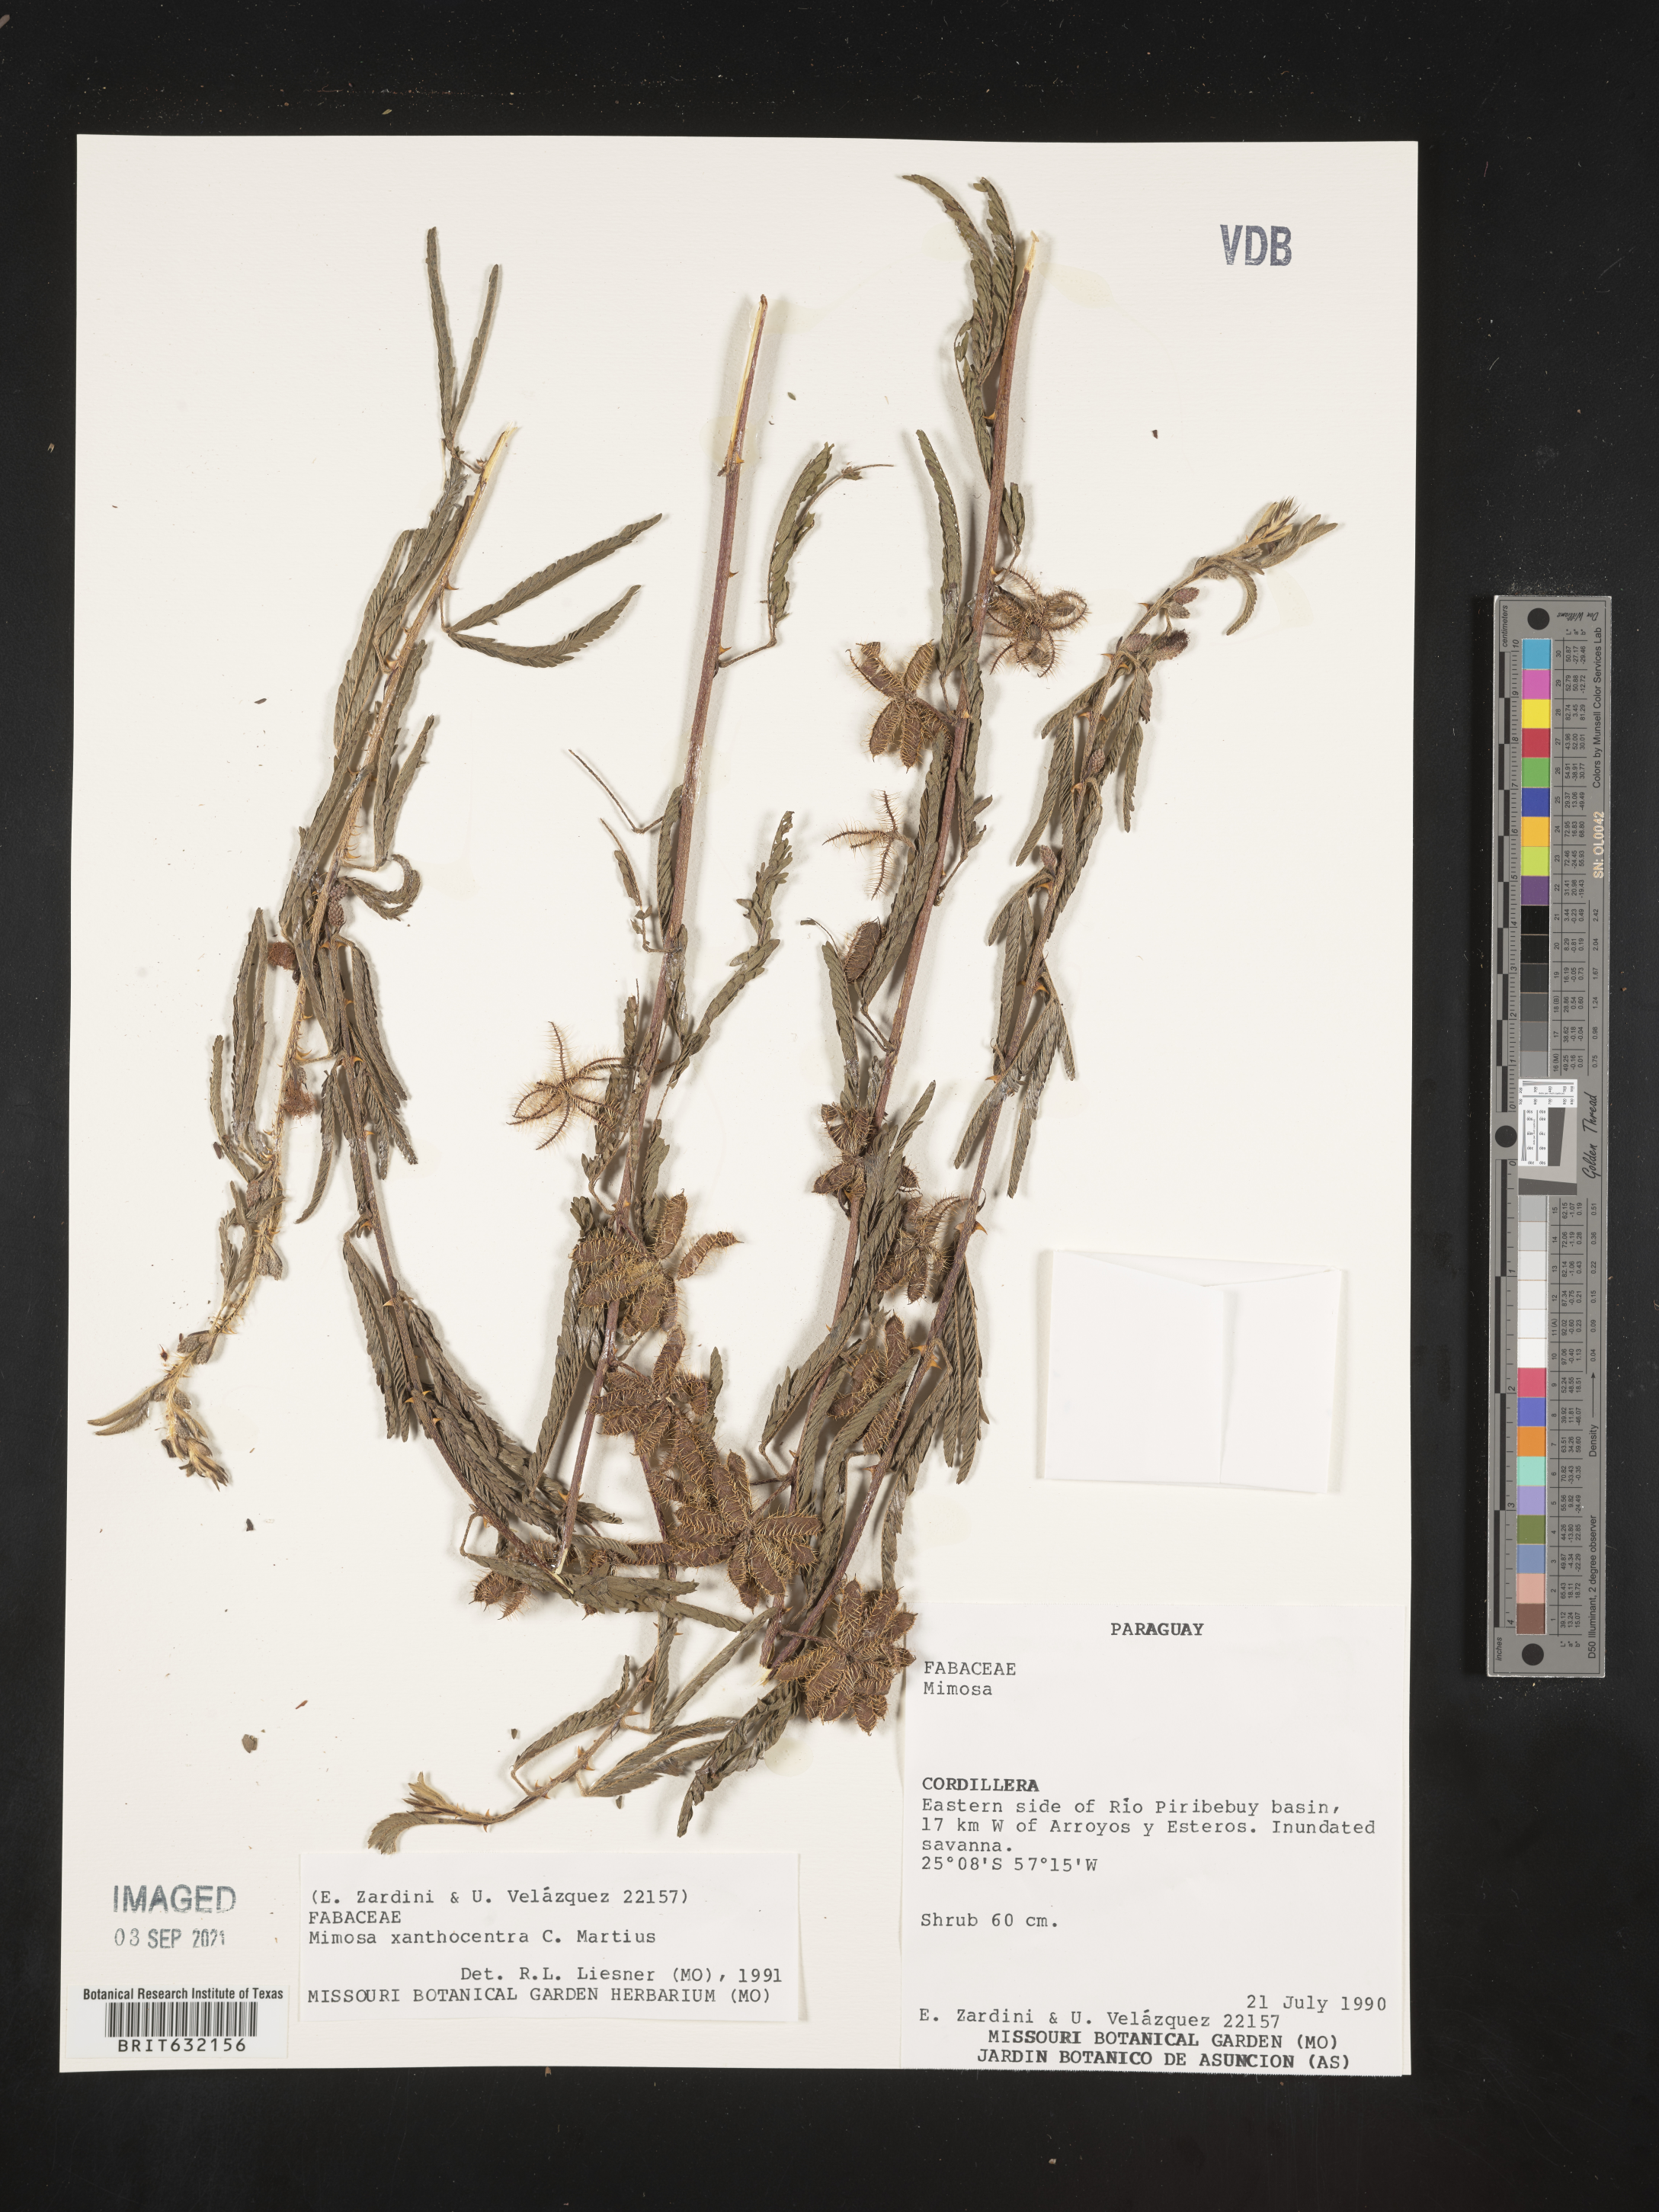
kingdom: Plantae
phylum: Tracheophyta
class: Magnoliopsida
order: Fabales
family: Fabaceae
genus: Mimosa
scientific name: Mimosa
